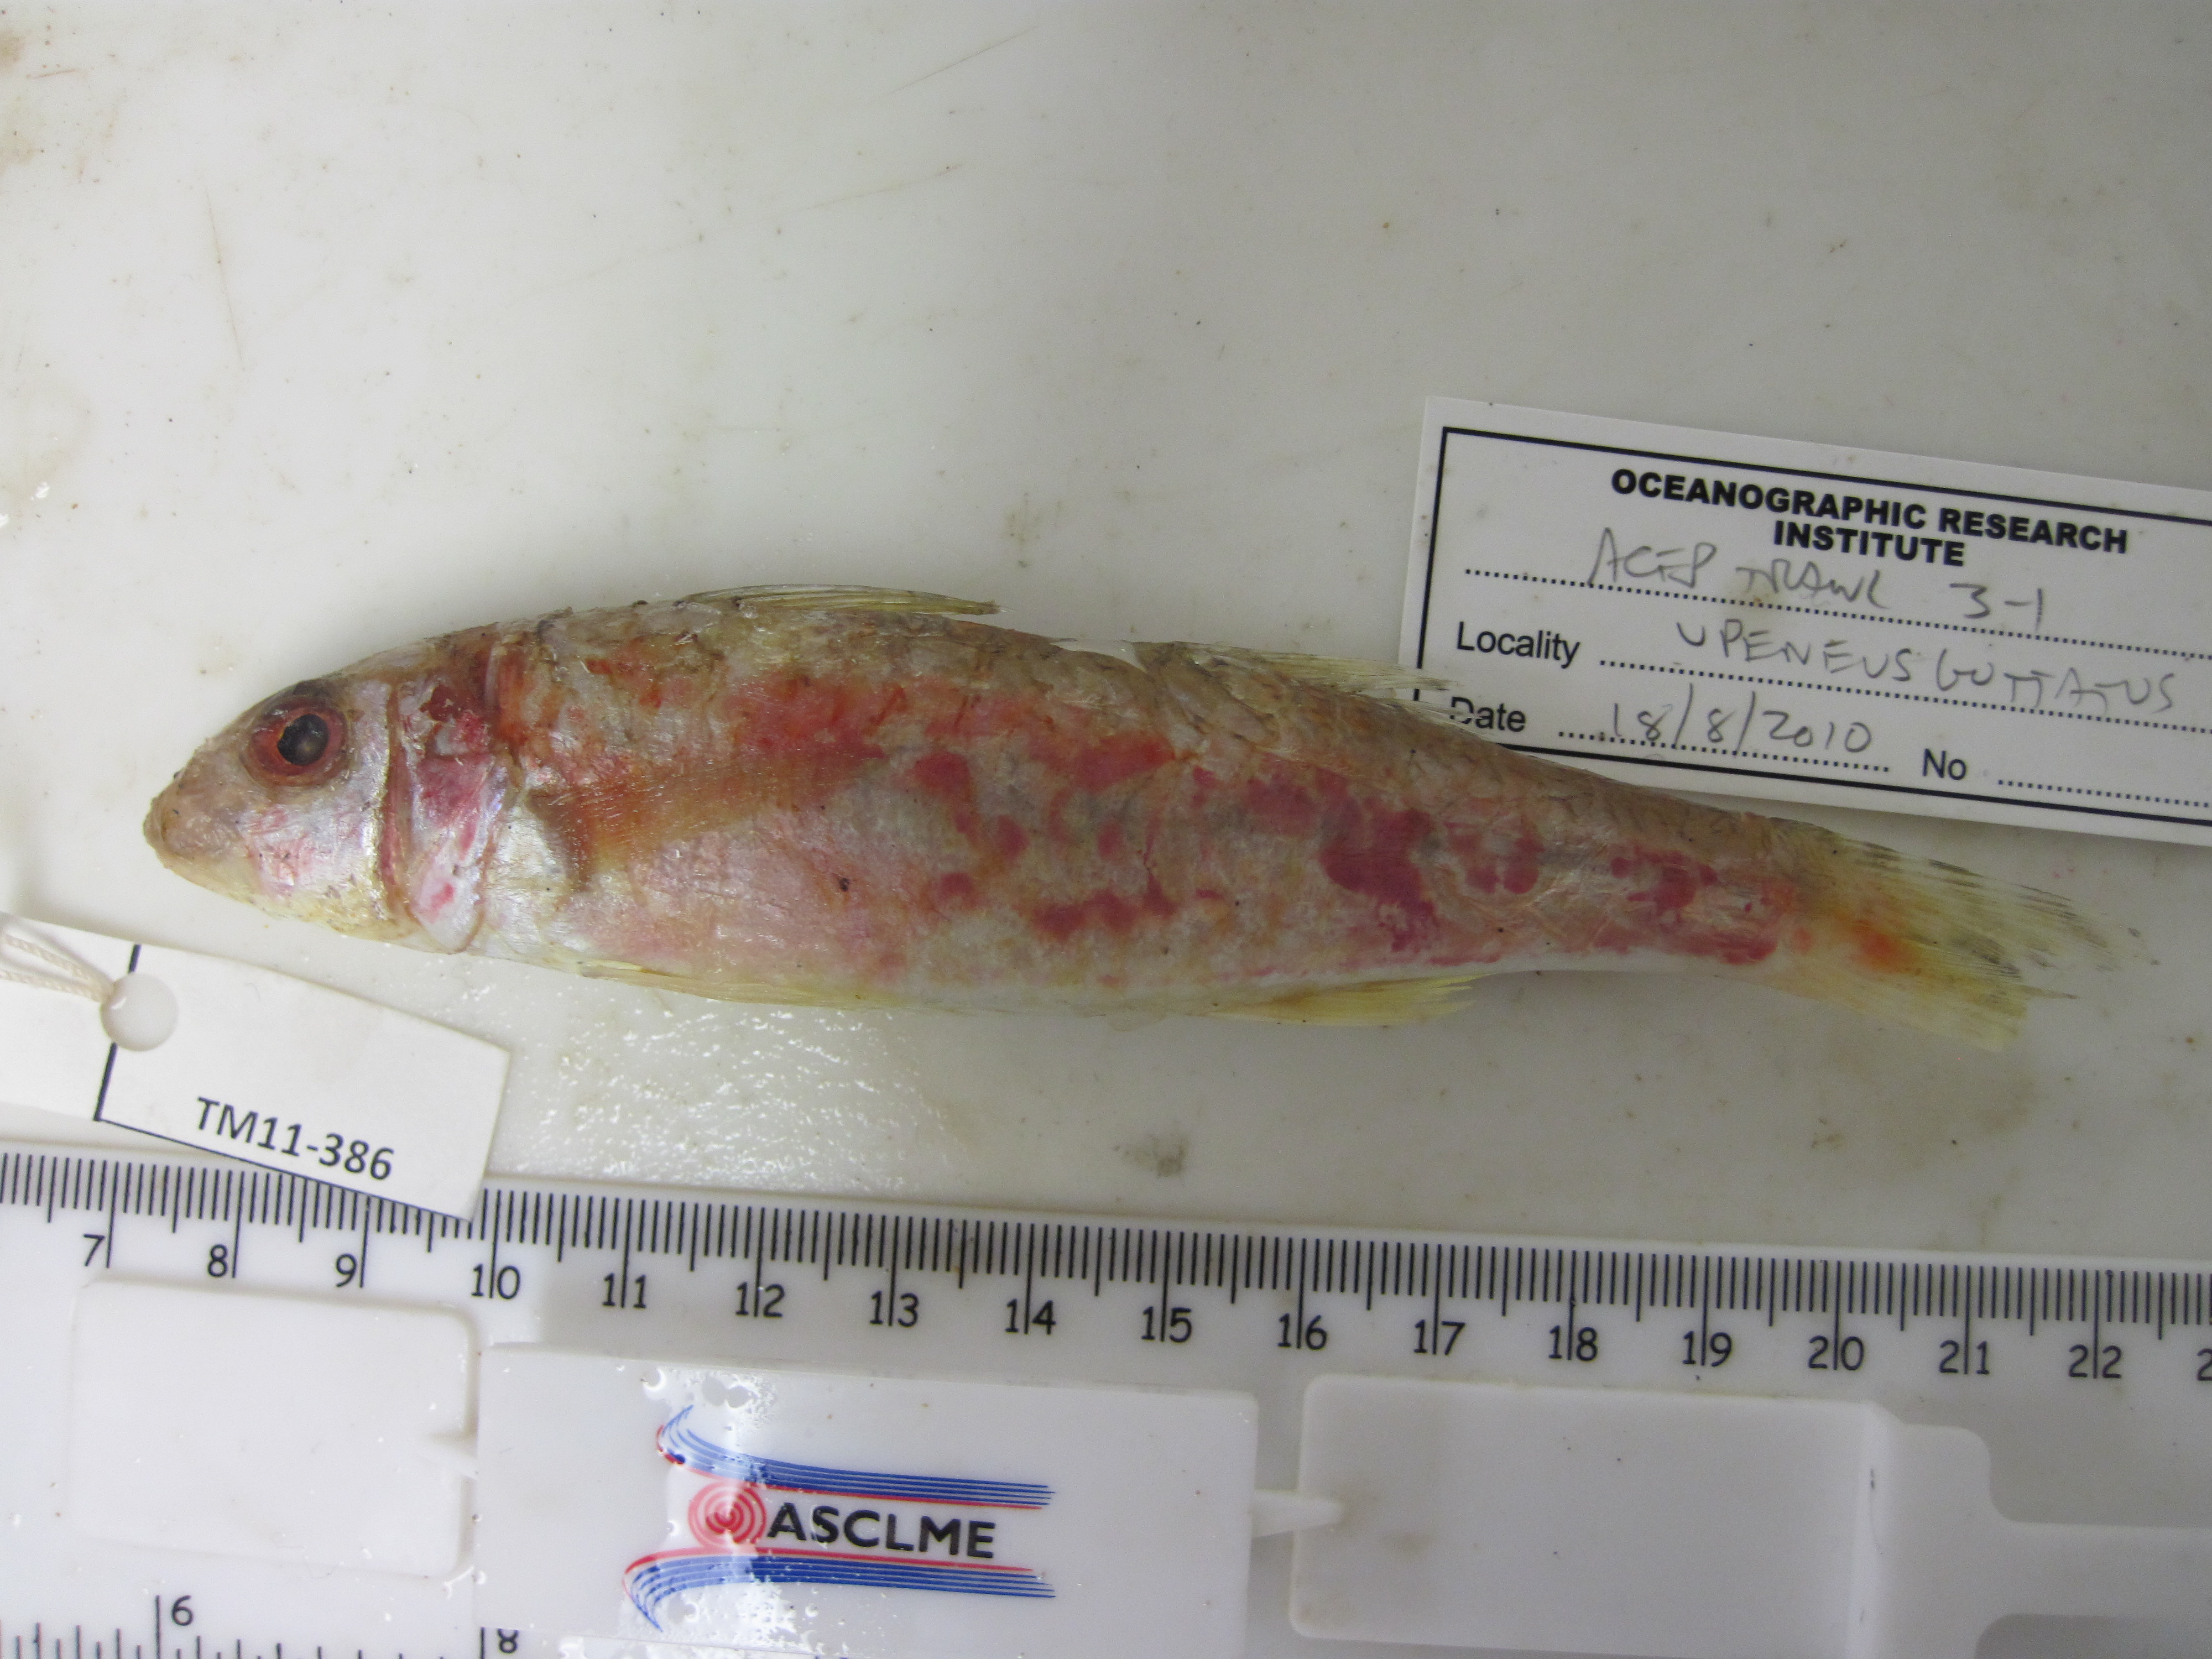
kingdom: Animalia
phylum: Chordata
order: Perciformes
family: Mullidae
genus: Upeneus
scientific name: Upeneus floros
